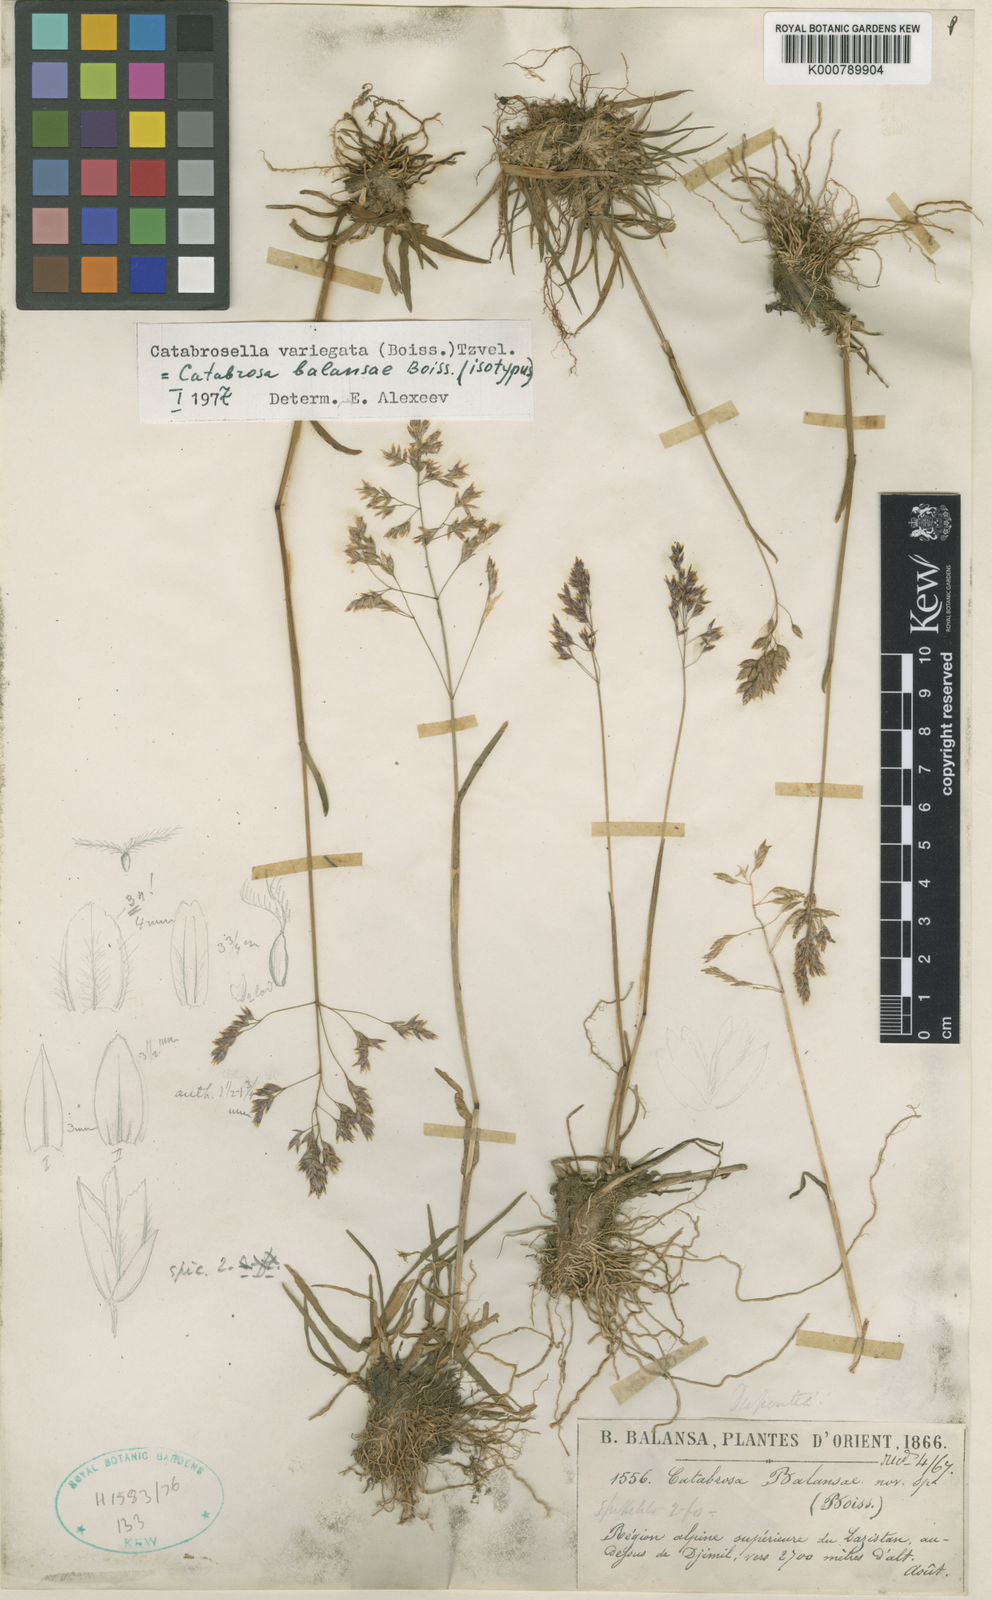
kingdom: Plantae
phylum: Tracheophyta
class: Liliopsida
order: Poales
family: Poaceae
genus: Catabrosella
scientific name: Catabrosella variegata
